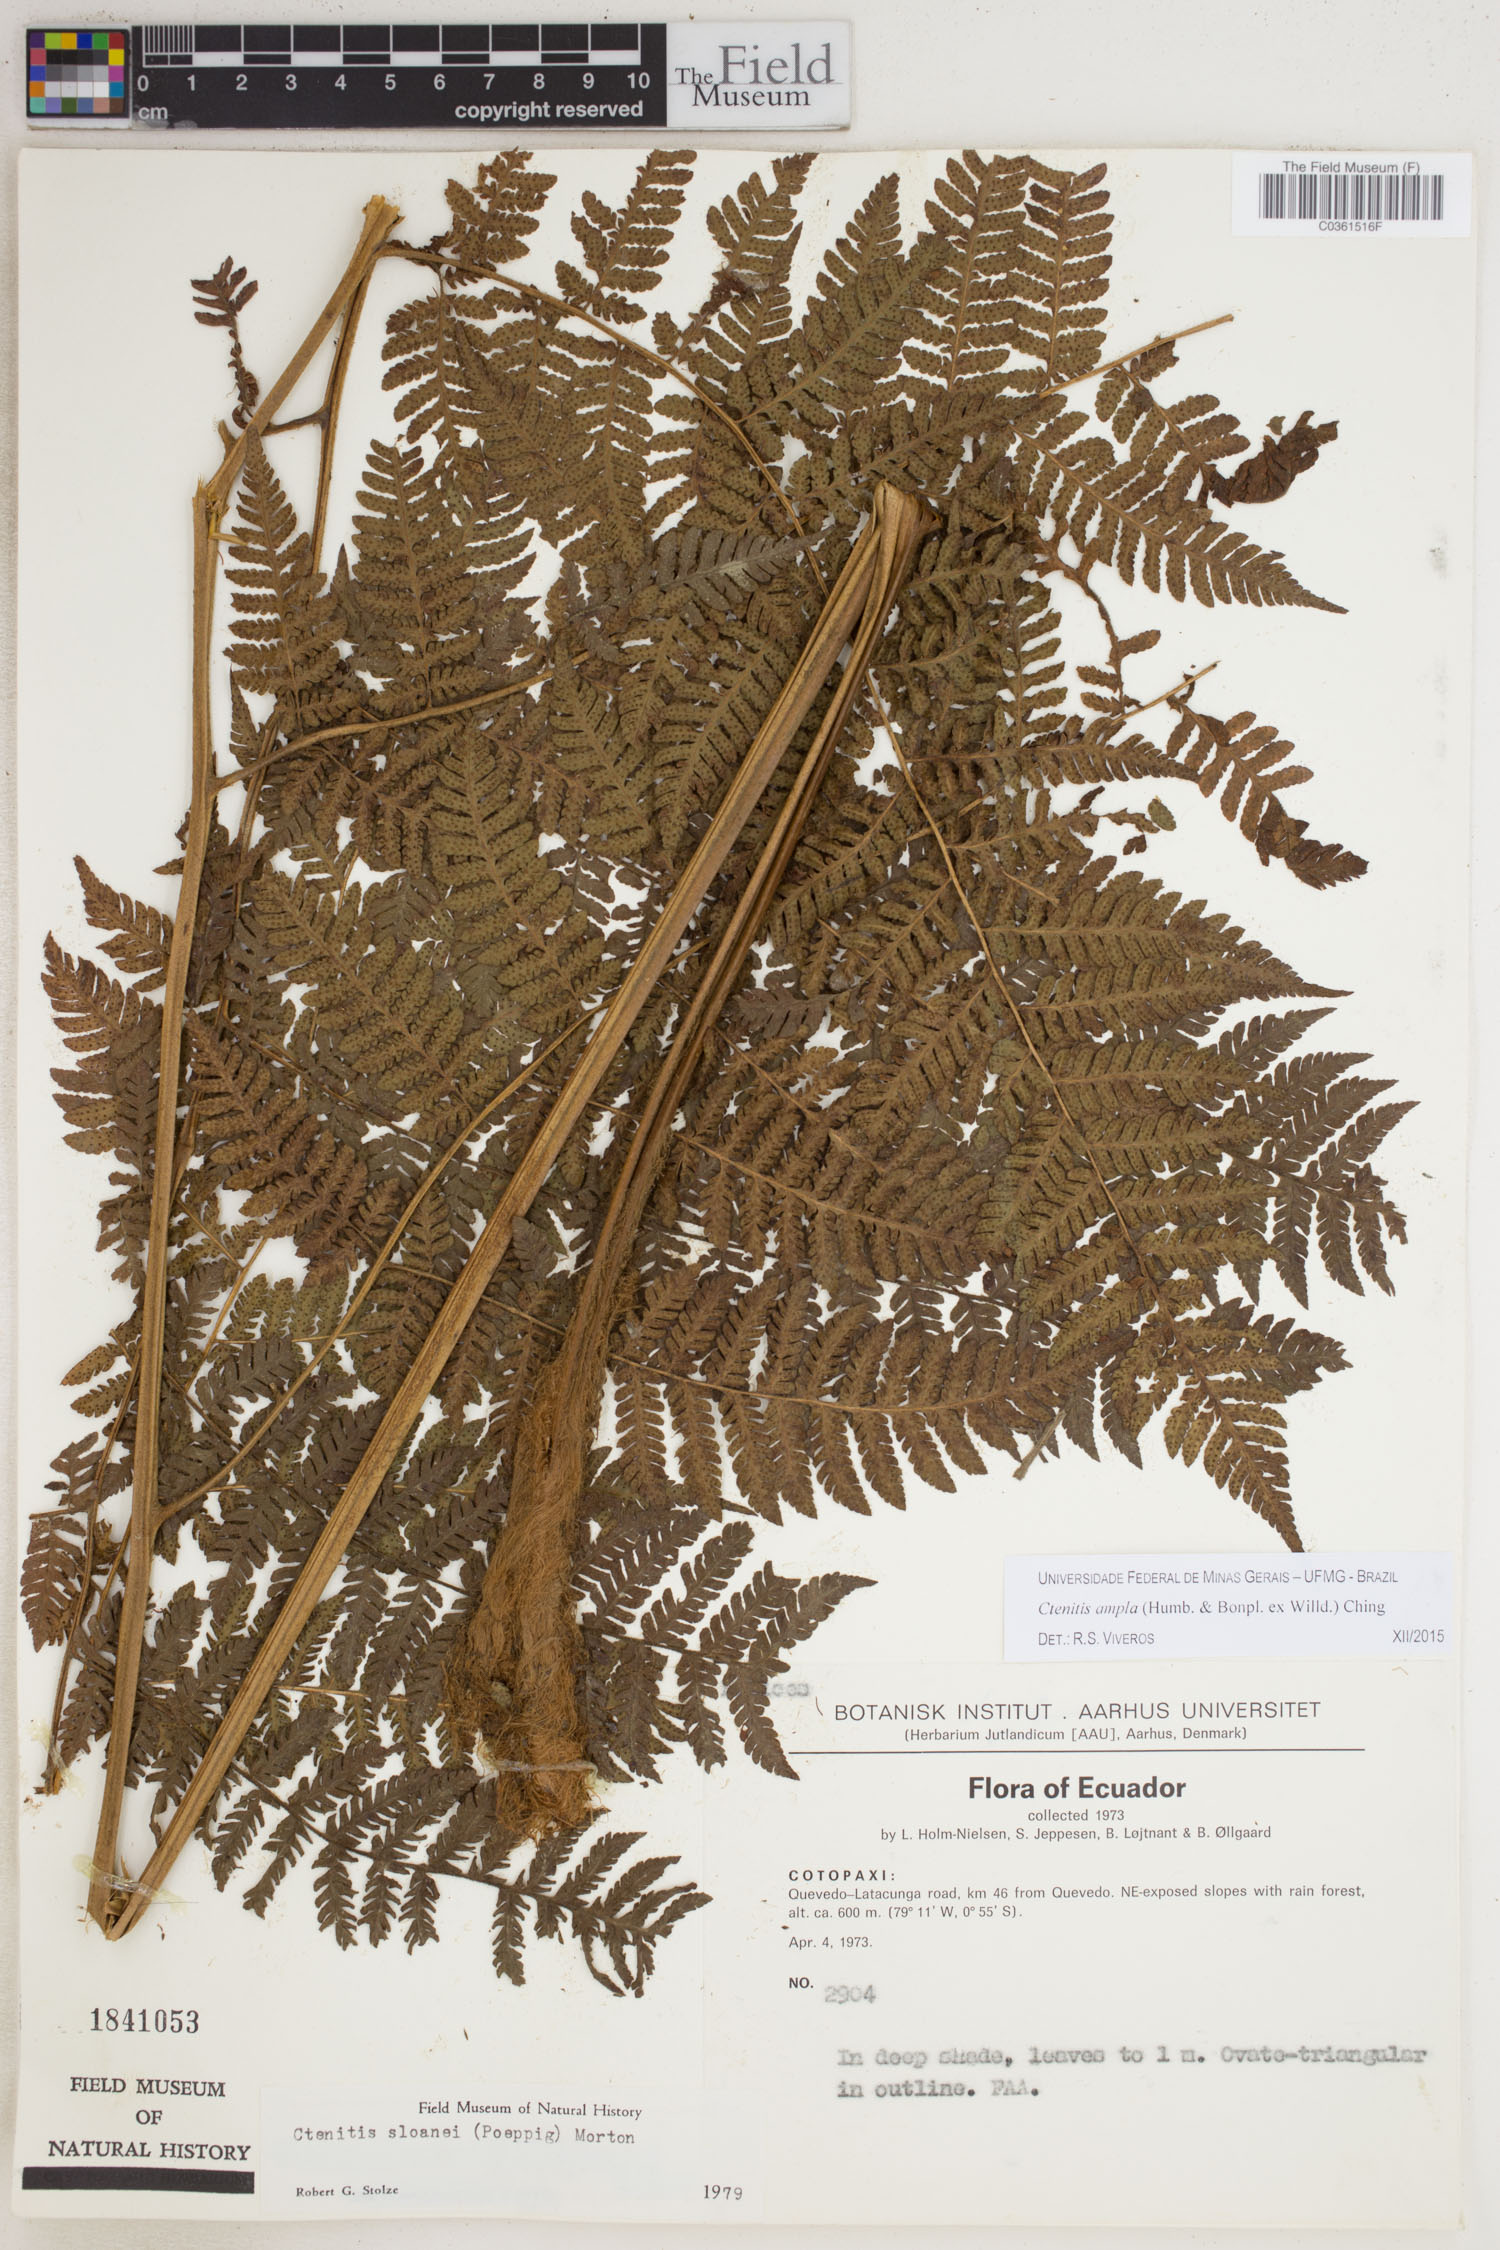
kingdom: Plantae
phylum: Tracheophyta
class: Polypodiopsida
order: Polypodiales
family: Dryopteridaceae
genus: Ctenitis
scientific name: Ctenitis sloanei
